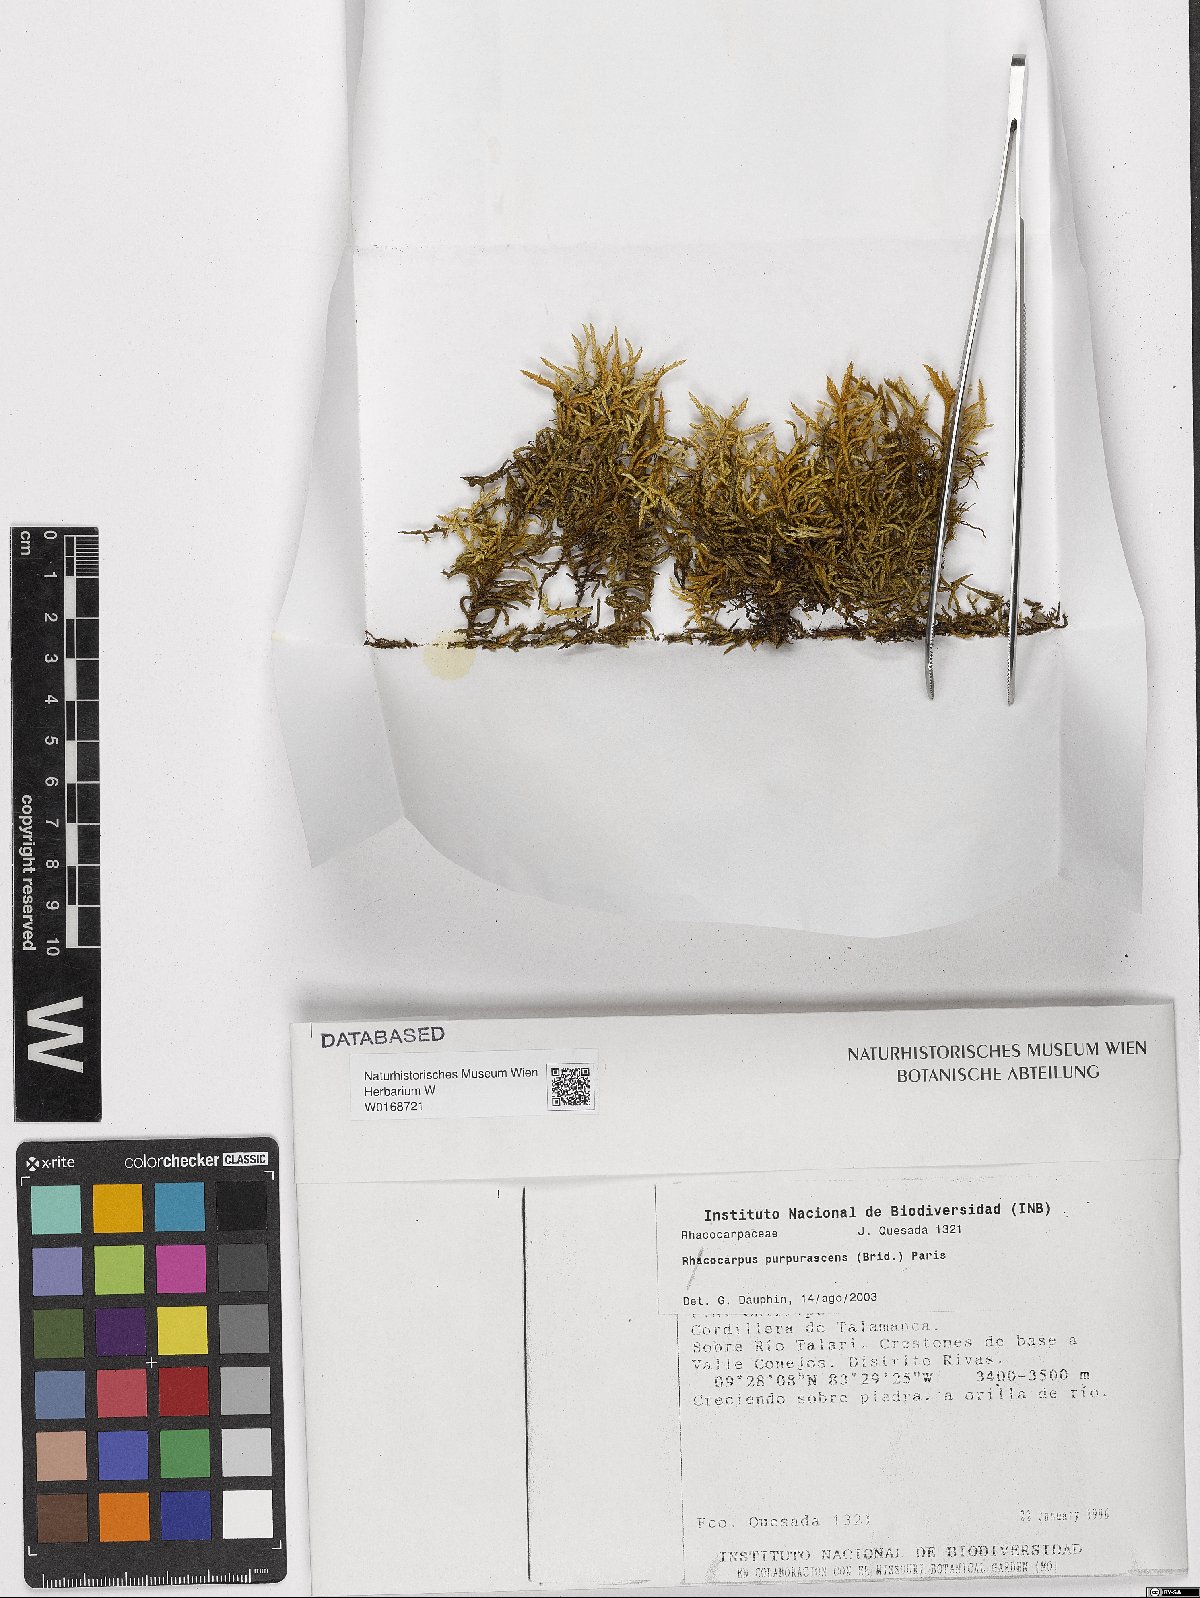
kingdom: Plantae
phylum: Bryophyta
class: Bryopsida
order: Hedwigiales
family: Hedwigiaceae
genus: Rhacocarpus
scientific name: Rhacocarpus purpurascens
